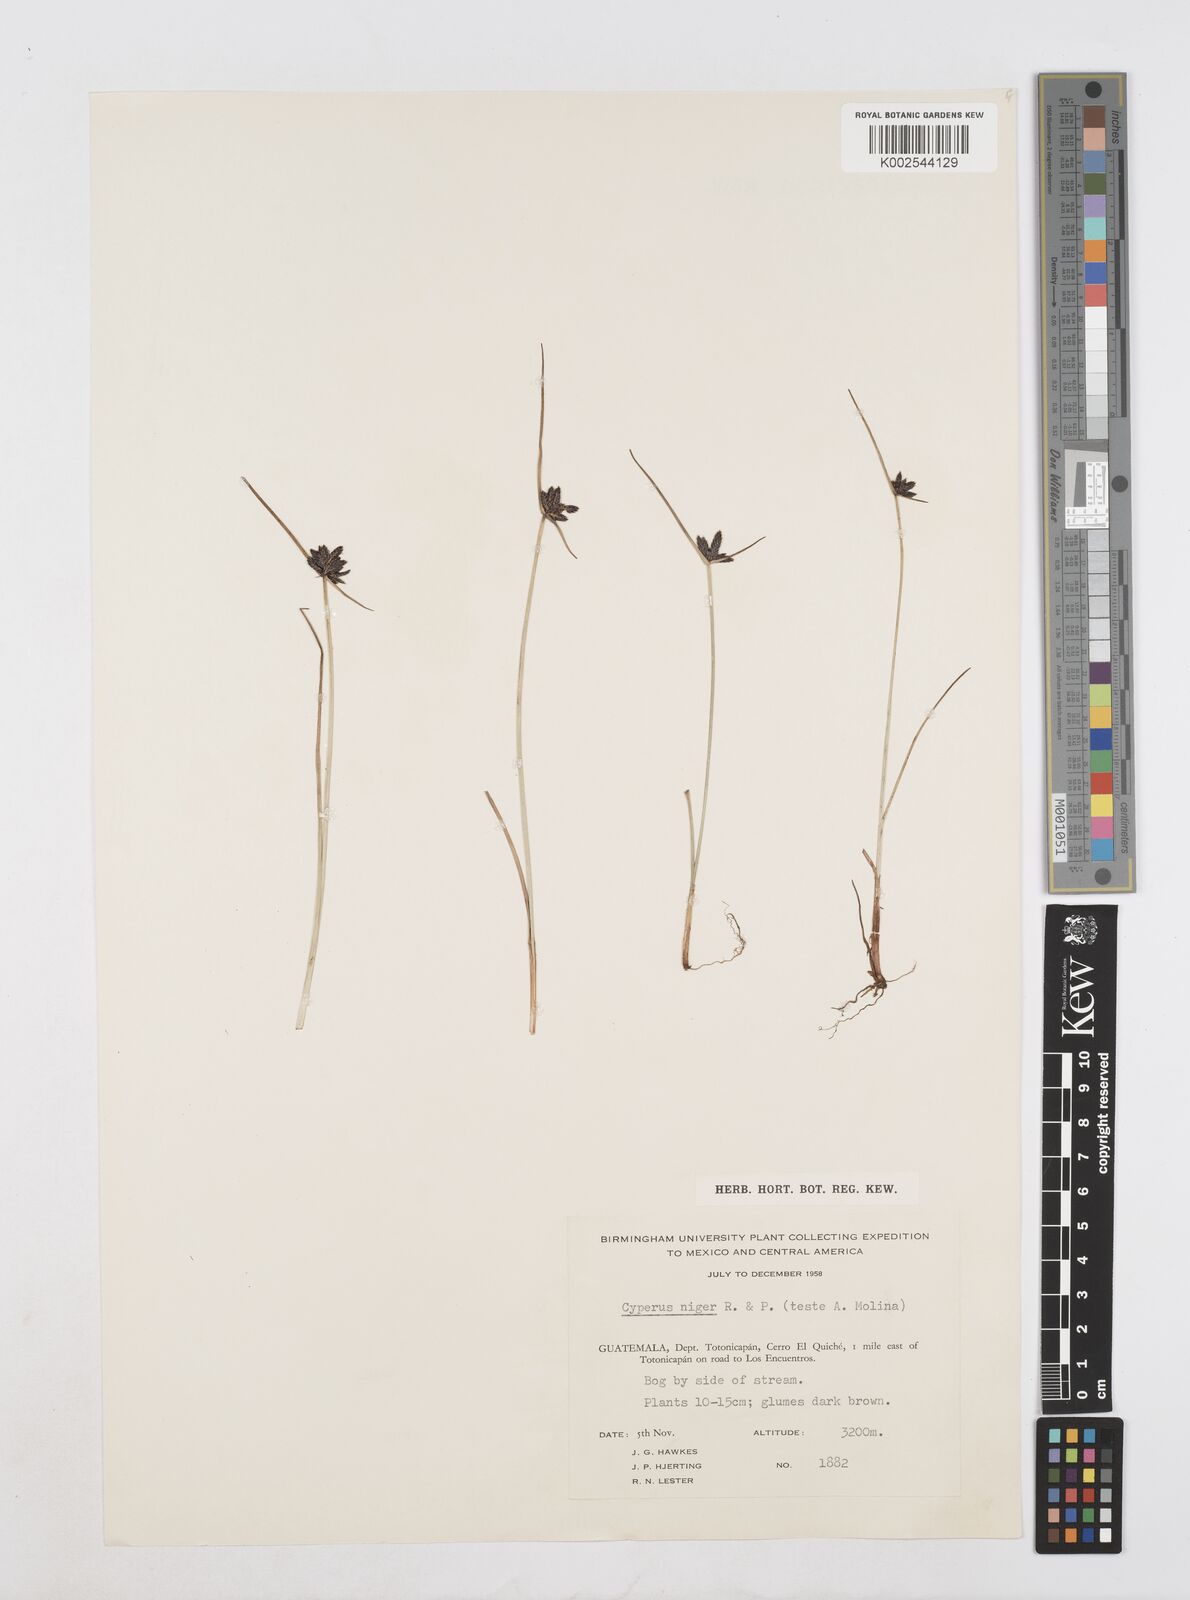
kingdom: Plantae
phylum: Tracheophyta
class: Liliopsida
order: Poales
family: Cyperaceae
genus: Cyperus
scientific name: Cyperus melanostachyus
